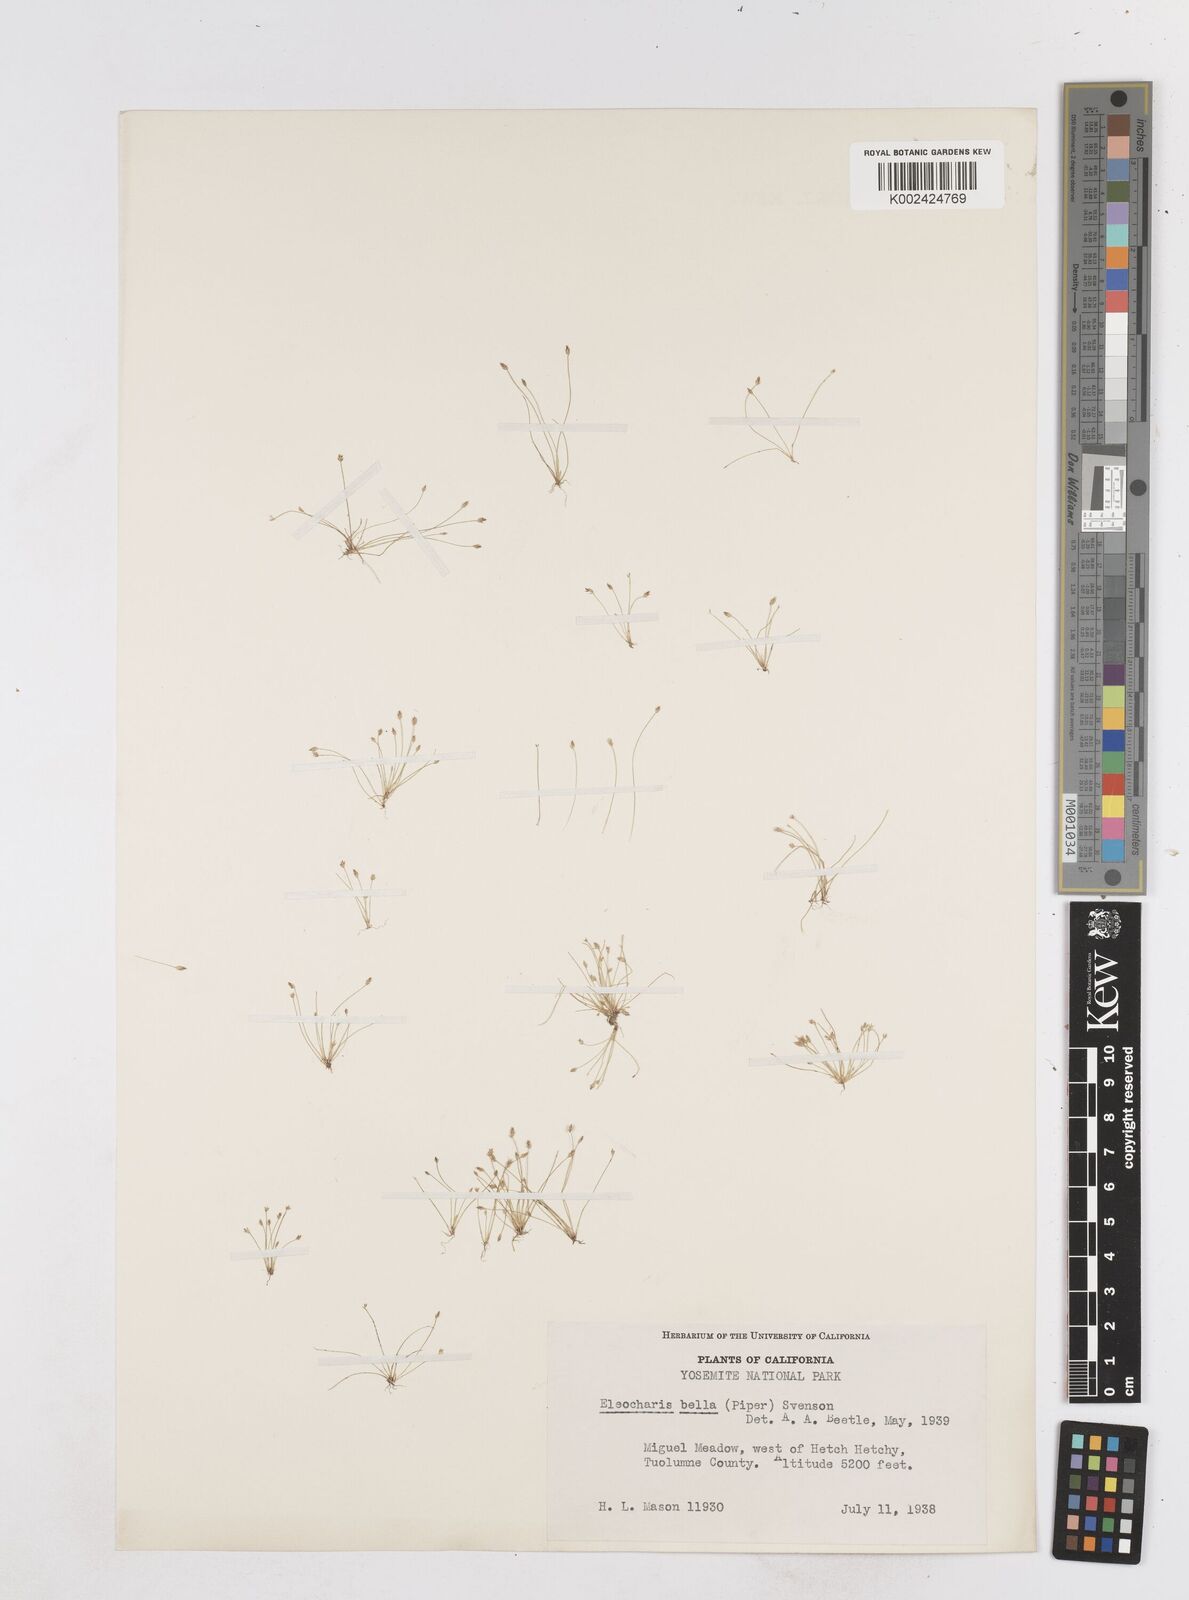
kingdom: Plantae
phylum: Tracheophyta
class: Liliopsida
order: Poales
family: Cyperaceae
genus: Eleocharis
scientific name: Eleocharis bella
